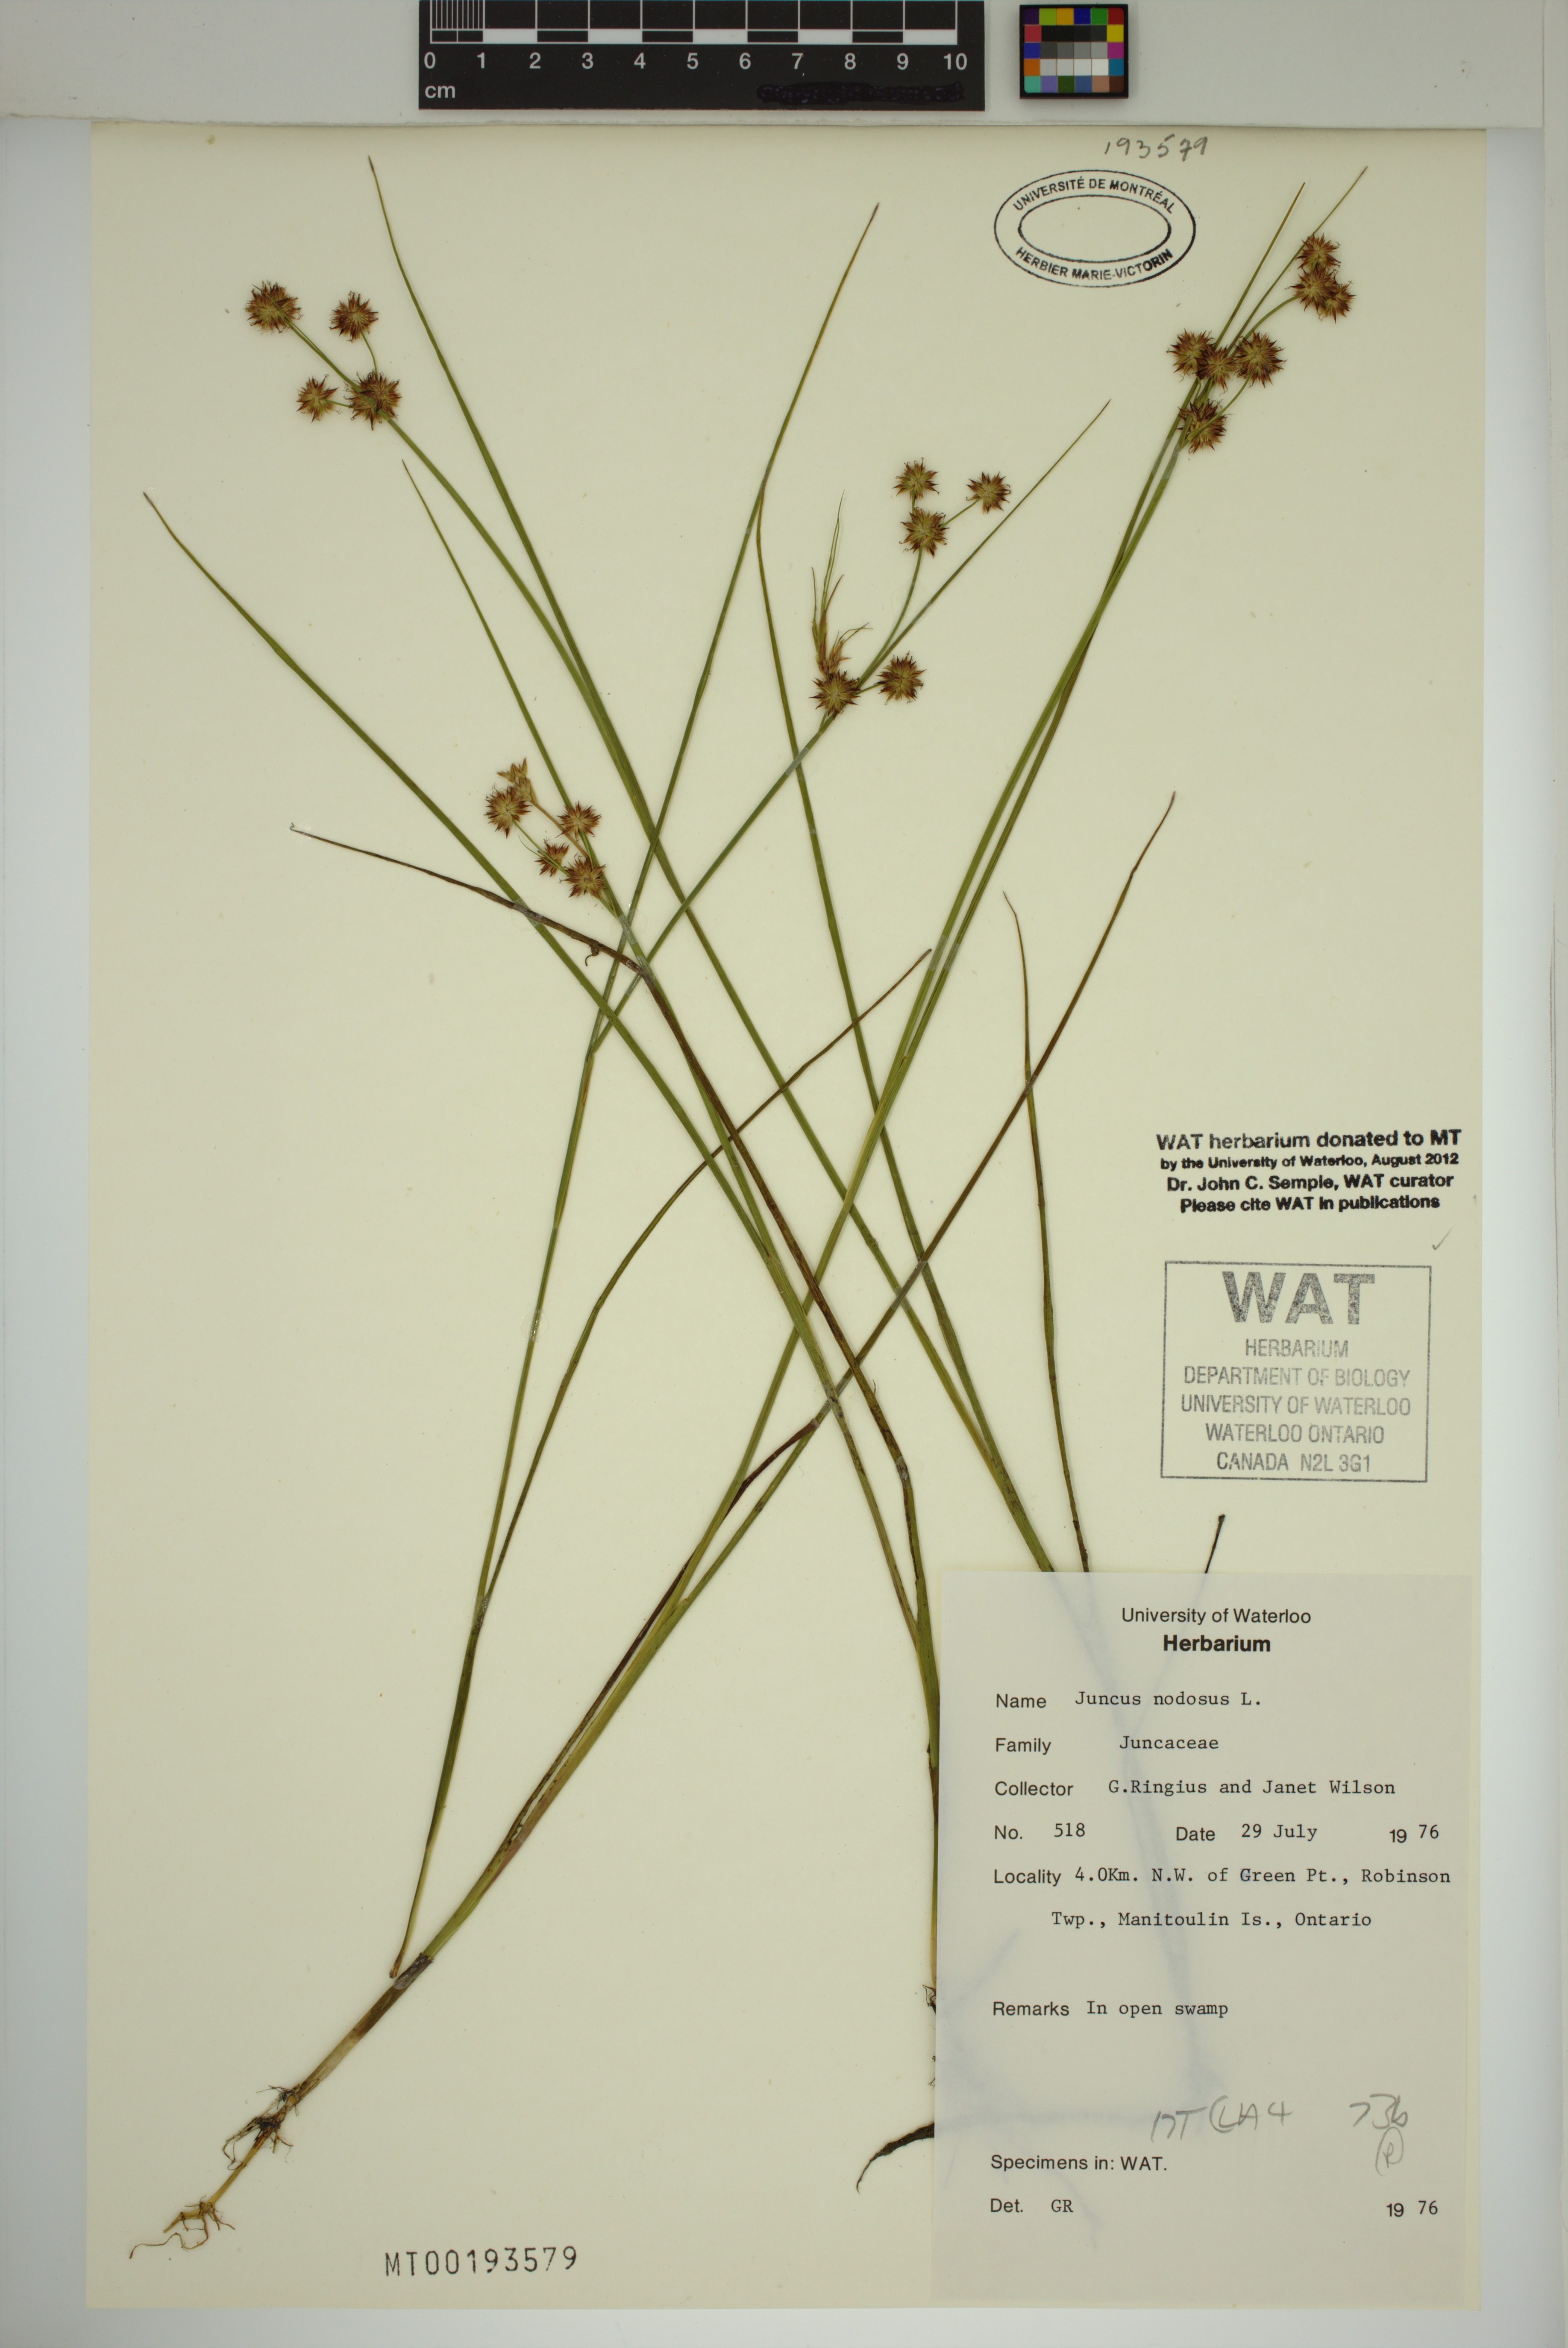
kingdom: Plantae
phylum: Tracheophyta
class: Liliopsida
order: Poales
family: Juncaceae
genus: Juncus
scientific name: Juncus nodosus
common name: Knotted rush
